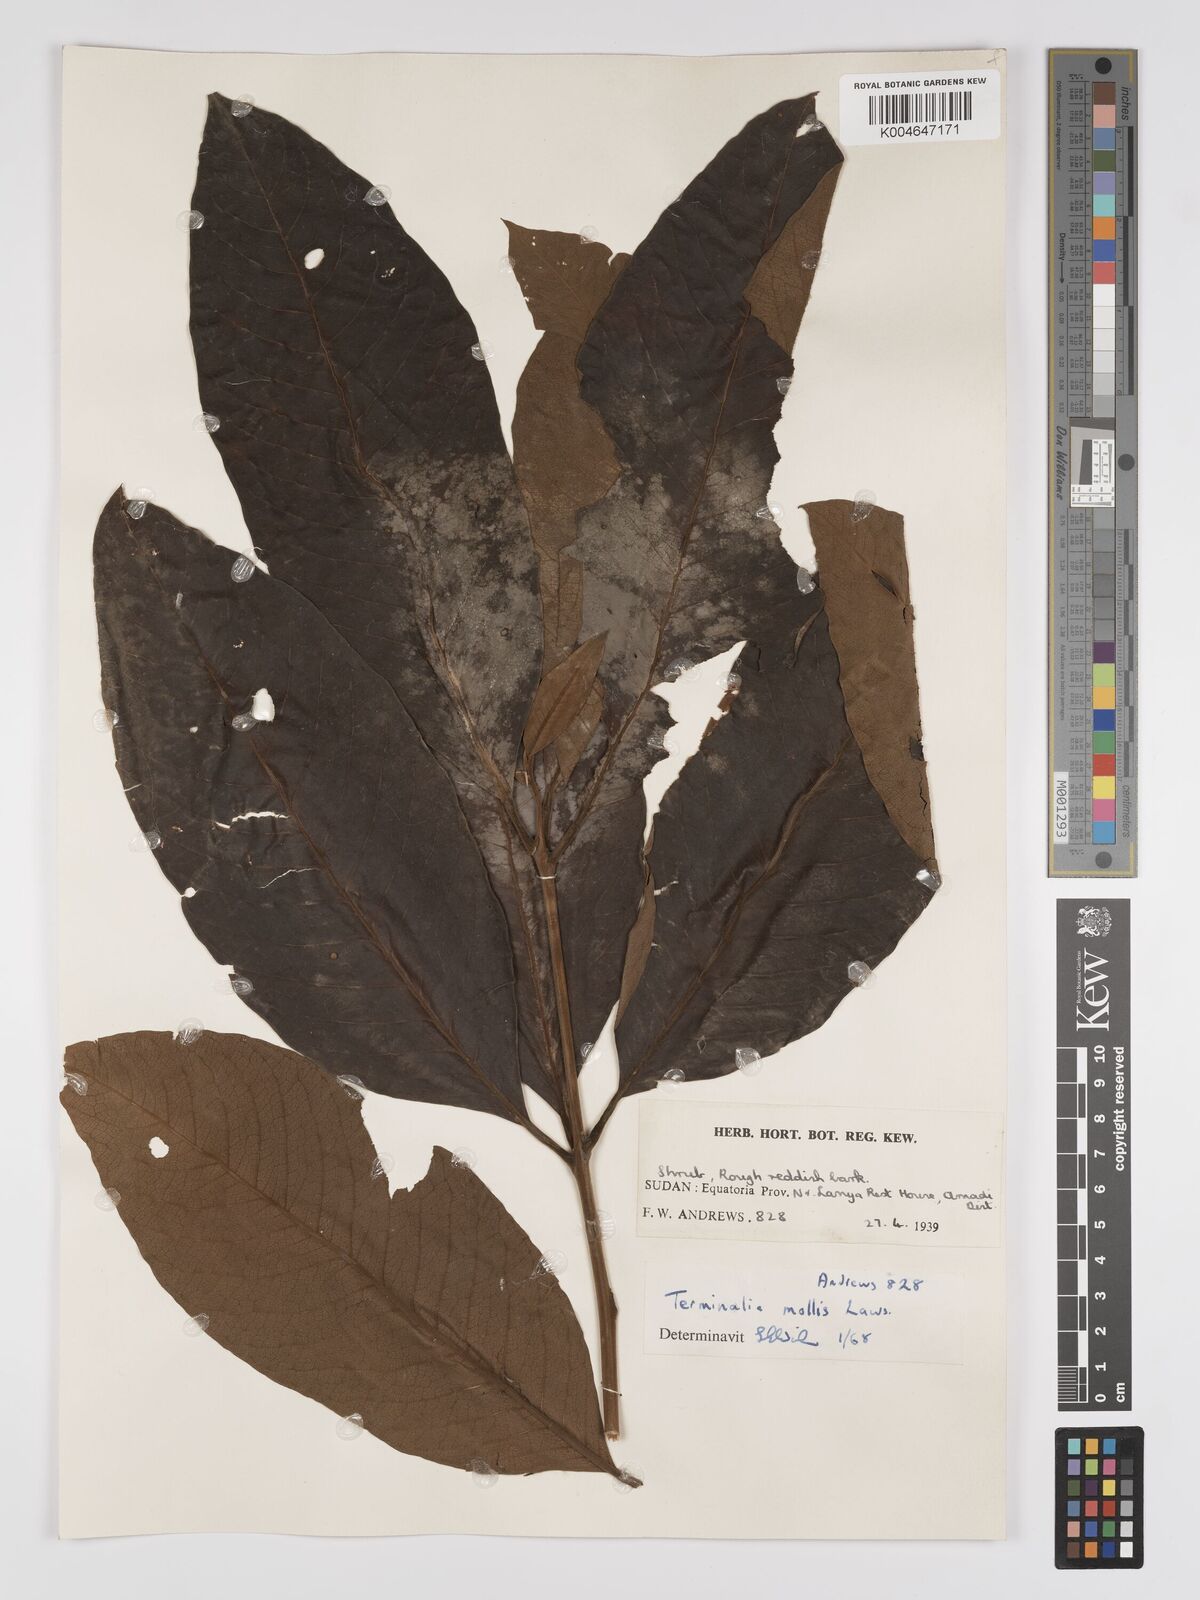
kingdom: Plantae
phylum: Tracheophyta
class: Magnoliopsida
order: Myrtales
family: Combretaceae
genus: Terminalia
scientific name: Terminalia mollis
